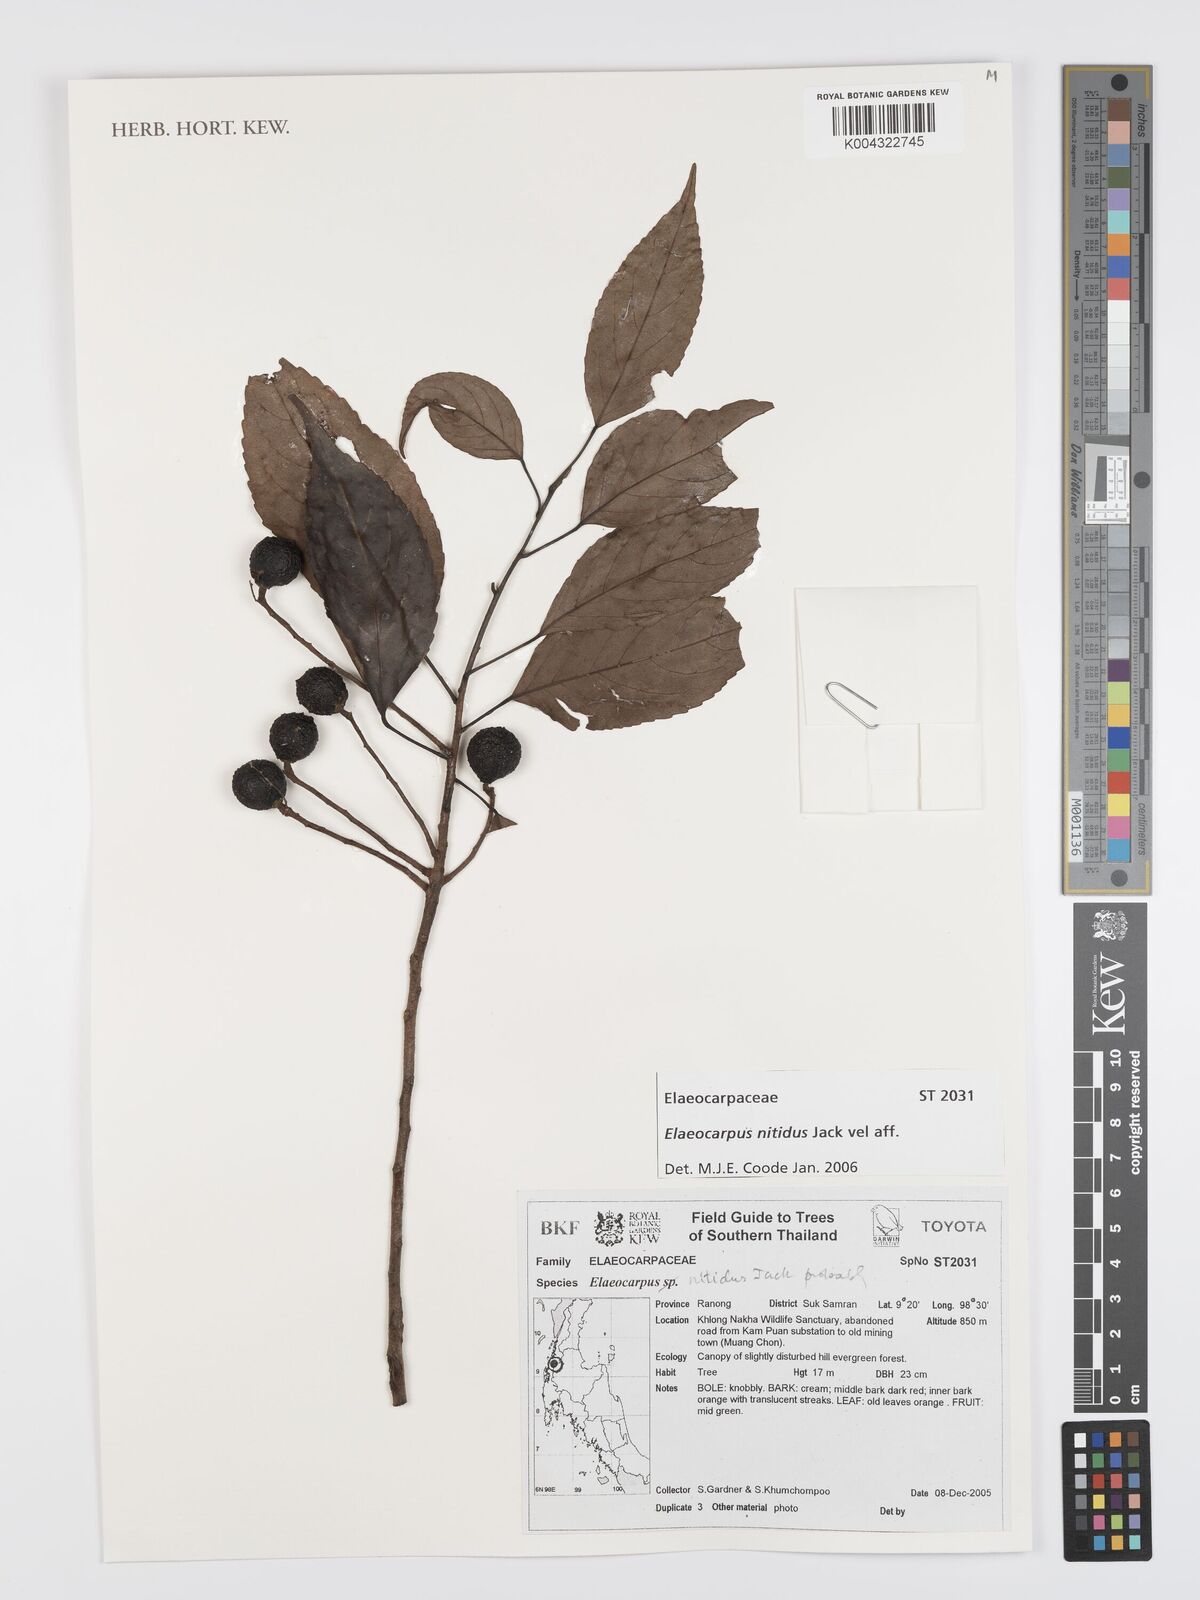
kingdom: Plantae
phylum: Tracheophyta
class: Magnoliopsida
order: Oxalidales
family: Elaeocarpaceae
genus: Elaeocarpus
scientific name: Elaeocarpus nitidus
